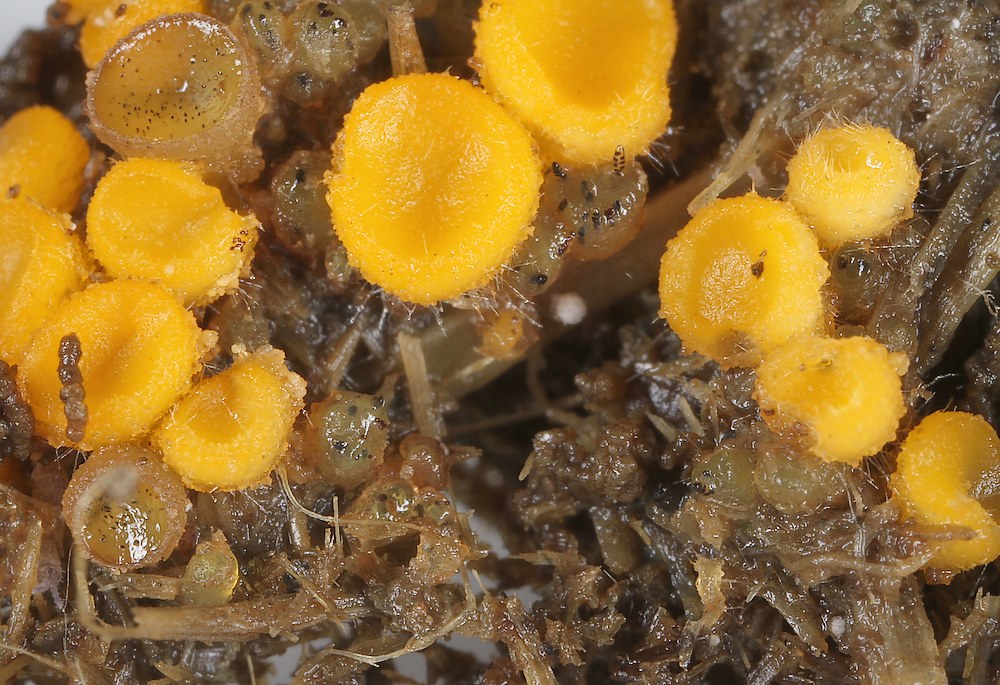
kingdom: Fungi
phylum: Ascomycota
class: Pezizomycetes
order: Pezizales
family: Ascobolaceae
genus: Ascobolus
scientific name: Ascobolus
